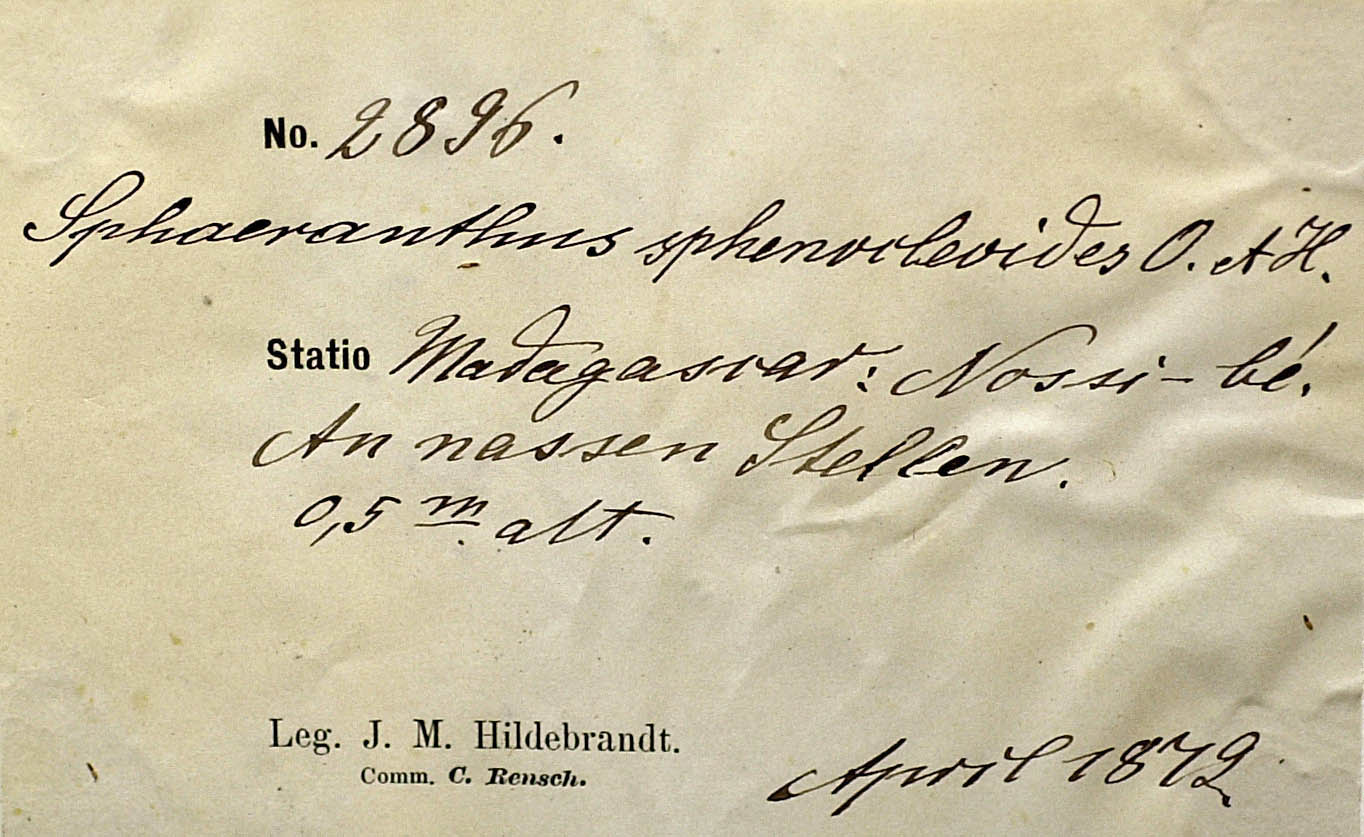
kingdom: Plantae
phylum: Tracheophyta
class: Magnoliopsida
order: Asterales
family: Asteraceae
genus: Sphaeranthus
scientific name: Sphaeranthus africanus
